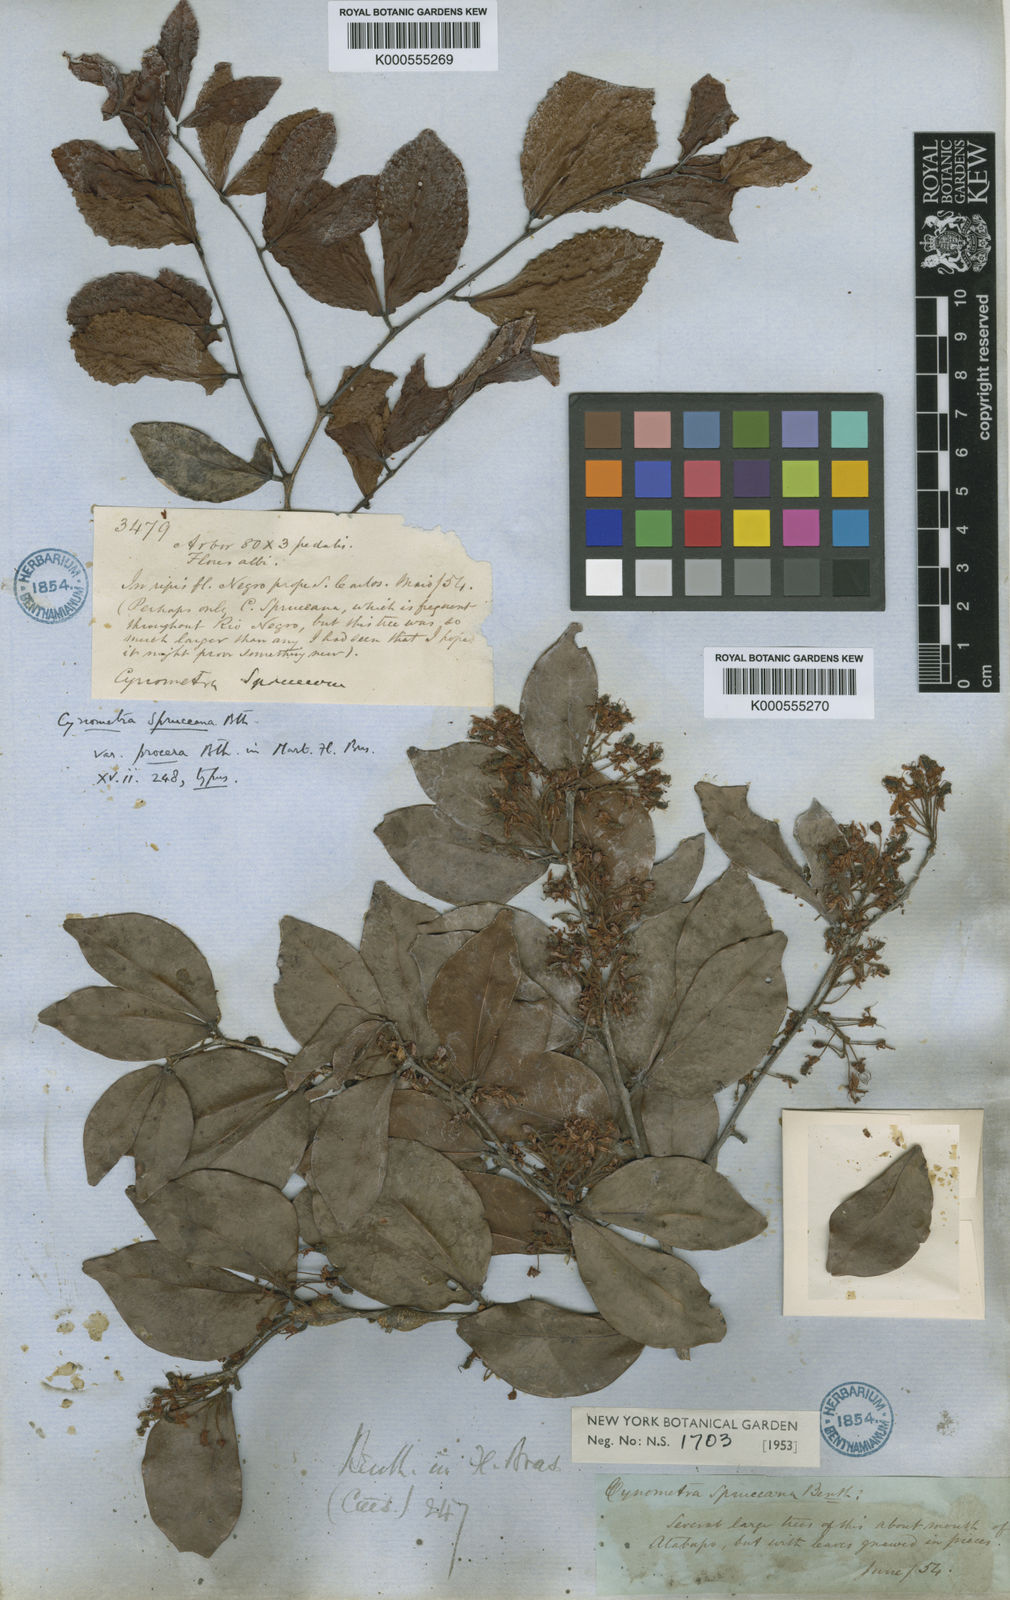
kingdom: Plantae
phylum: Tracheophyta
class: Magnoliopsida
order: Fabales
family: Fabaceae
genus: Cynometra
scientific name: Cynometra phaselocarpa
